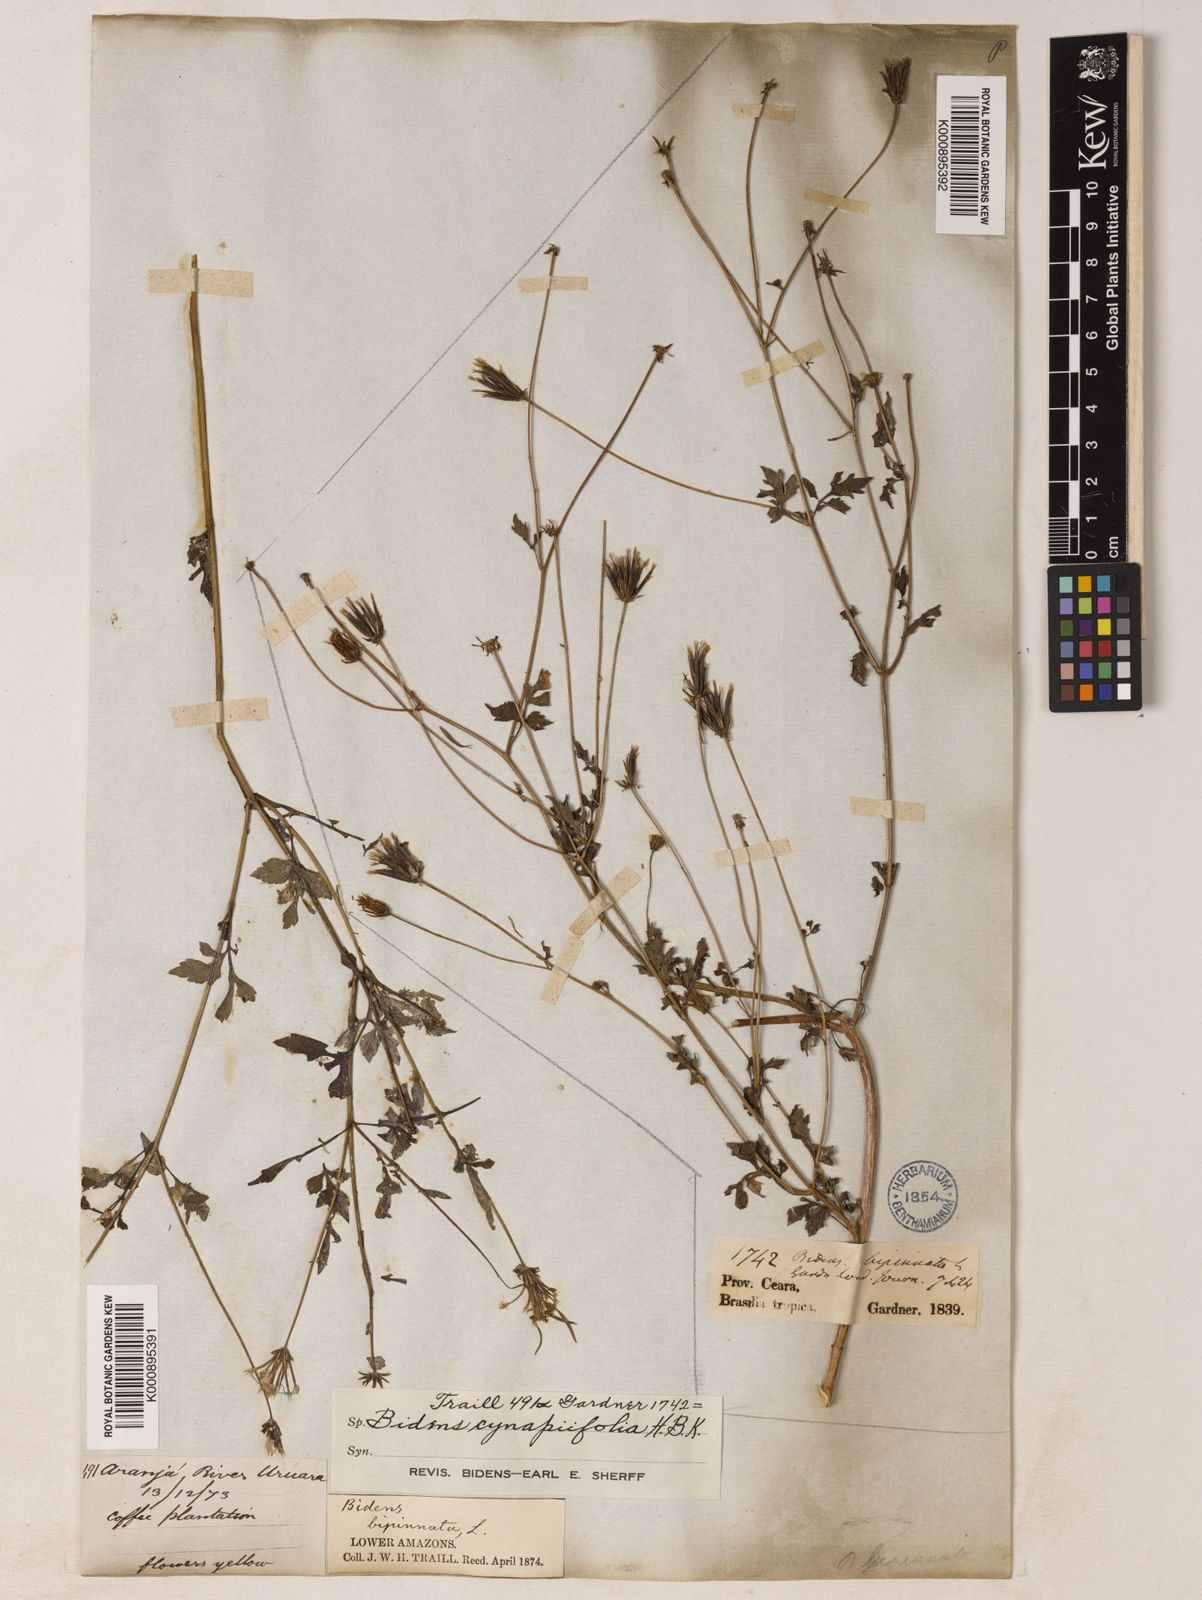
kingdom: Plantae
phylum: Tracheophyta
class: Magnoliopsida
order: Asterales
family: Asteraceae
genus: Bidens
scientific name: Bidens cynapiifolia
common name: Beggar's tick
